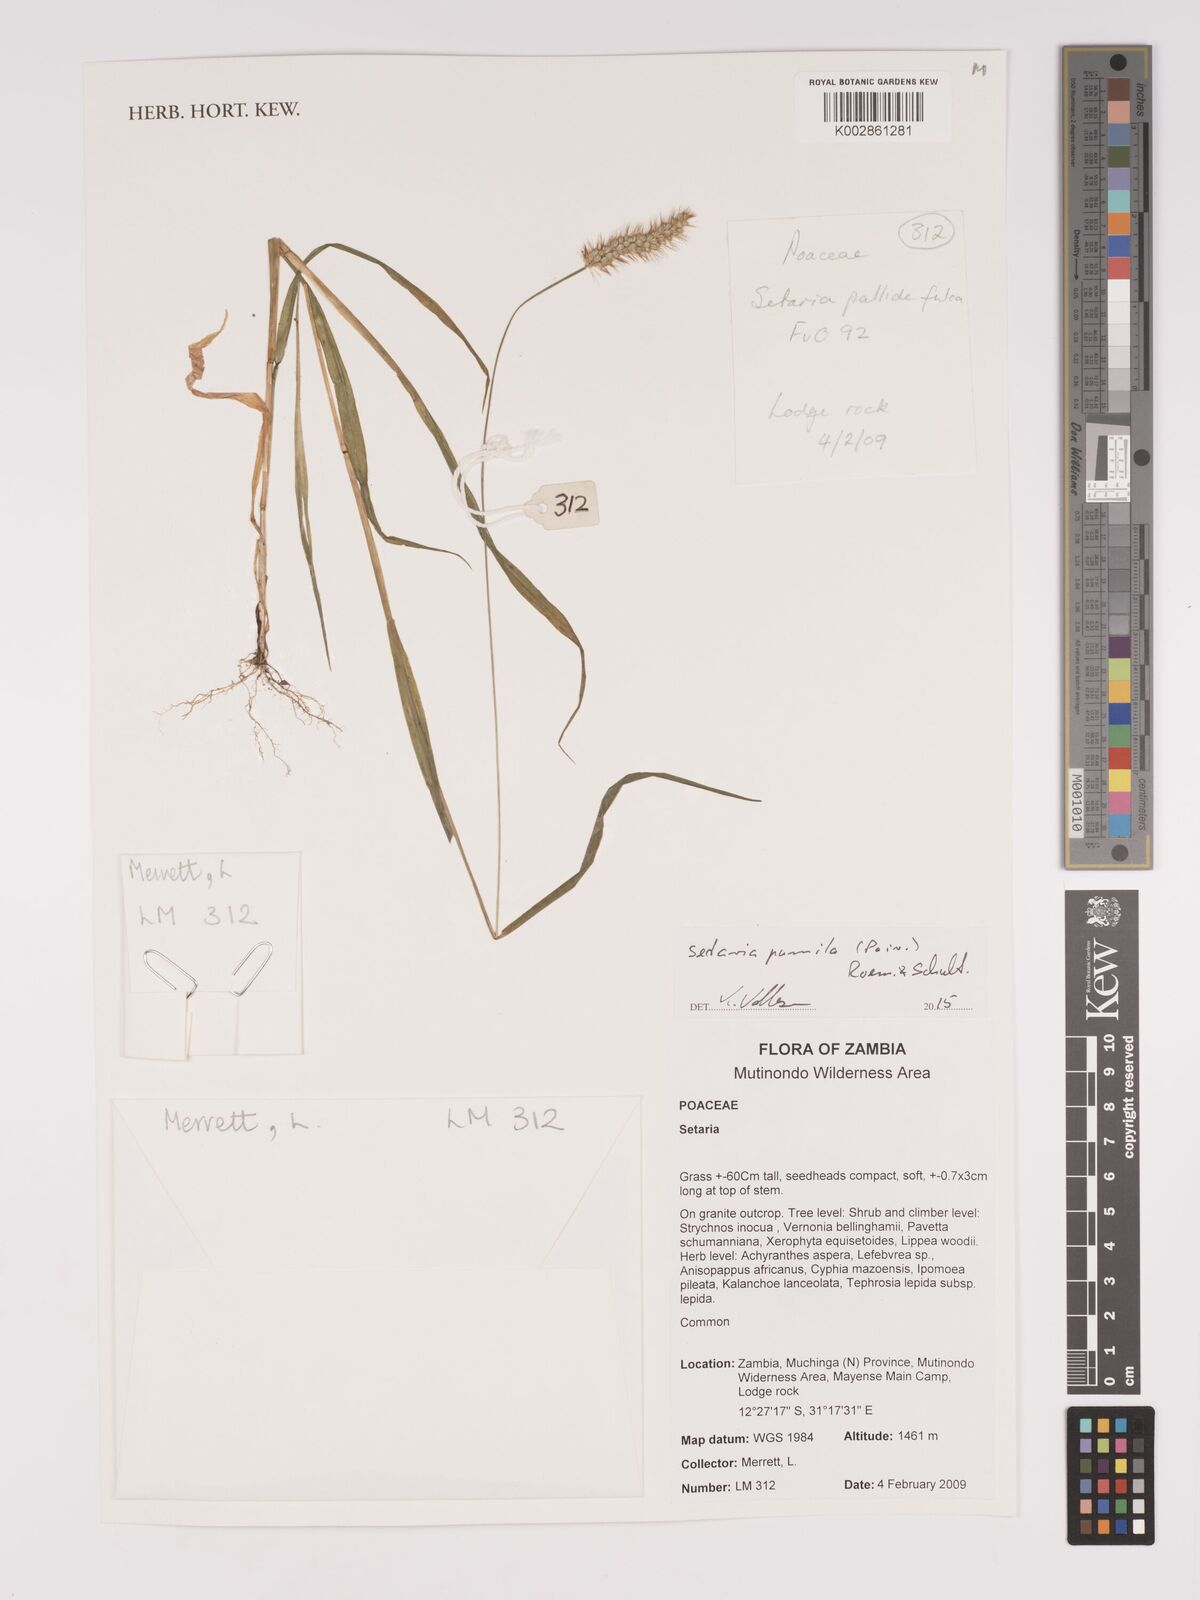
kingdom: Plantae
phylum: Tracheophyta
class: Liliopsida
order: Poales
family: Poaceae
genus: Setaria
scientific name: Setaria pumila
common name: Yellow bristle-grass
